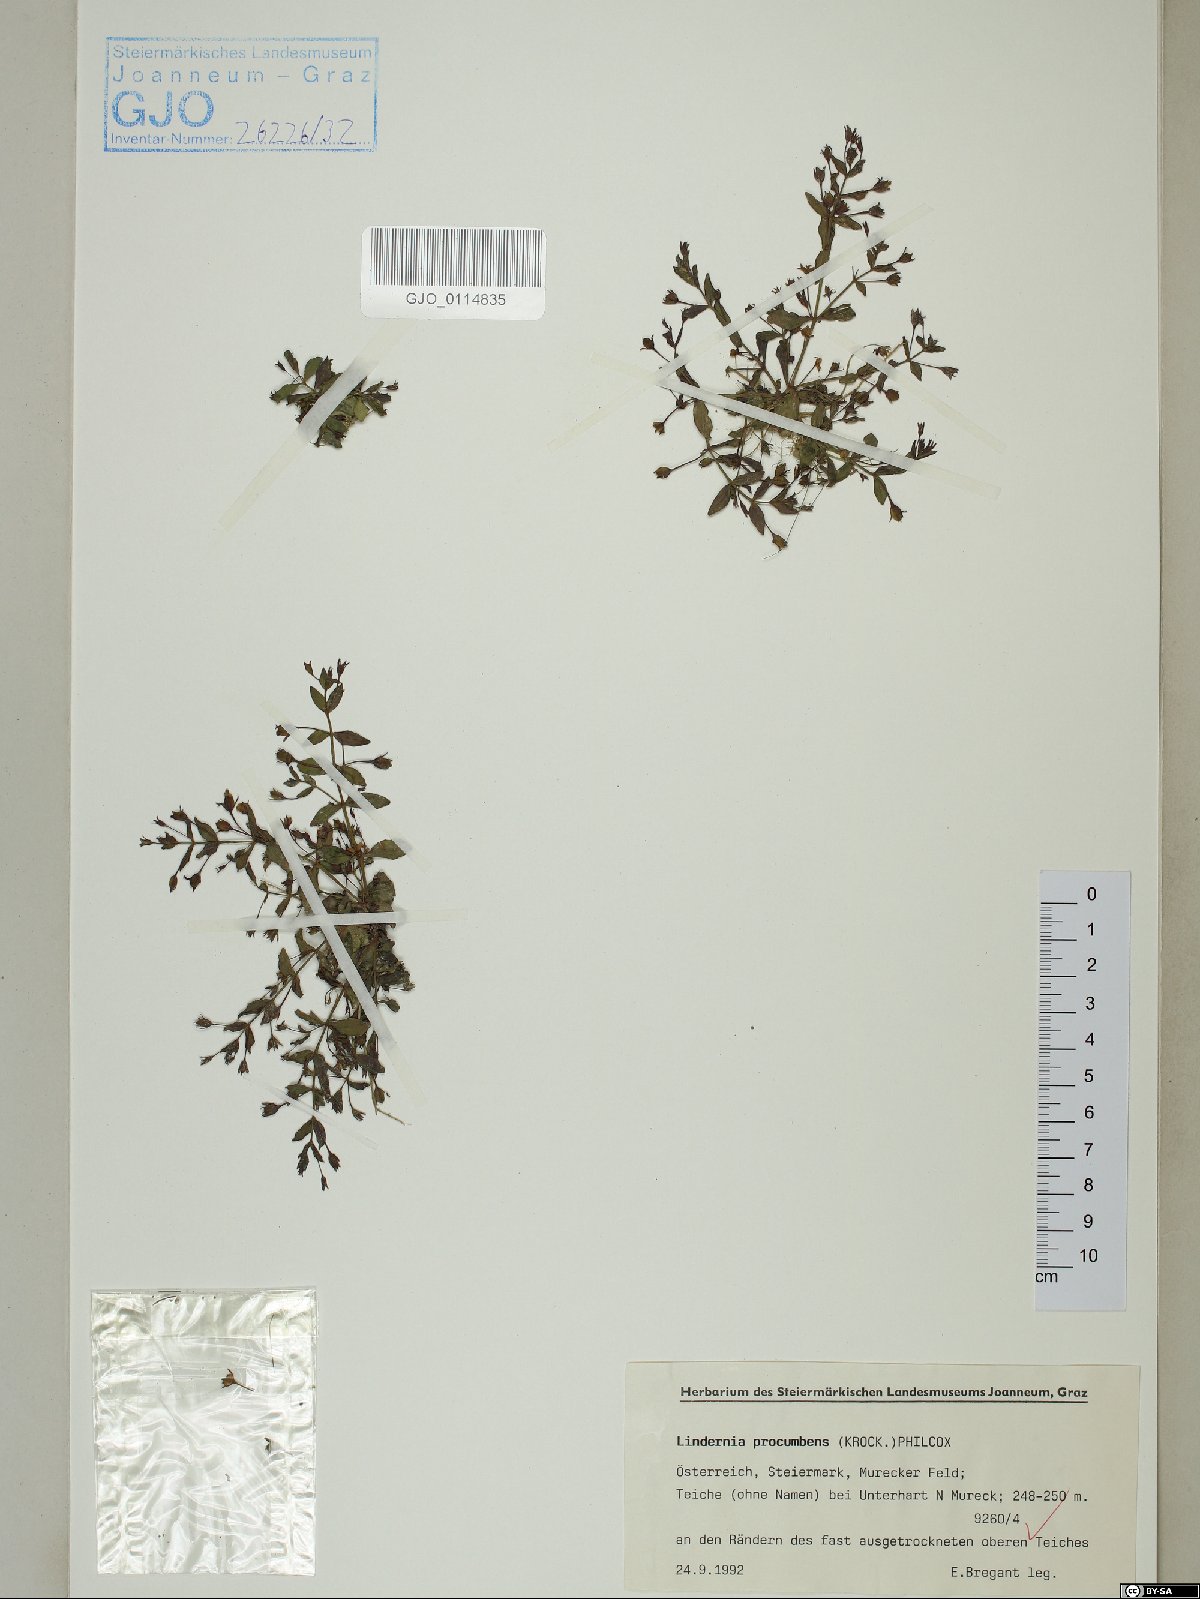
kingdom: Plantae
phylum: Tracheophyta
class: Magnoliopsida
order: Lamiales
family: Linderniaceae
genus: Lindernia
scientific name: Lindernia procumbens
